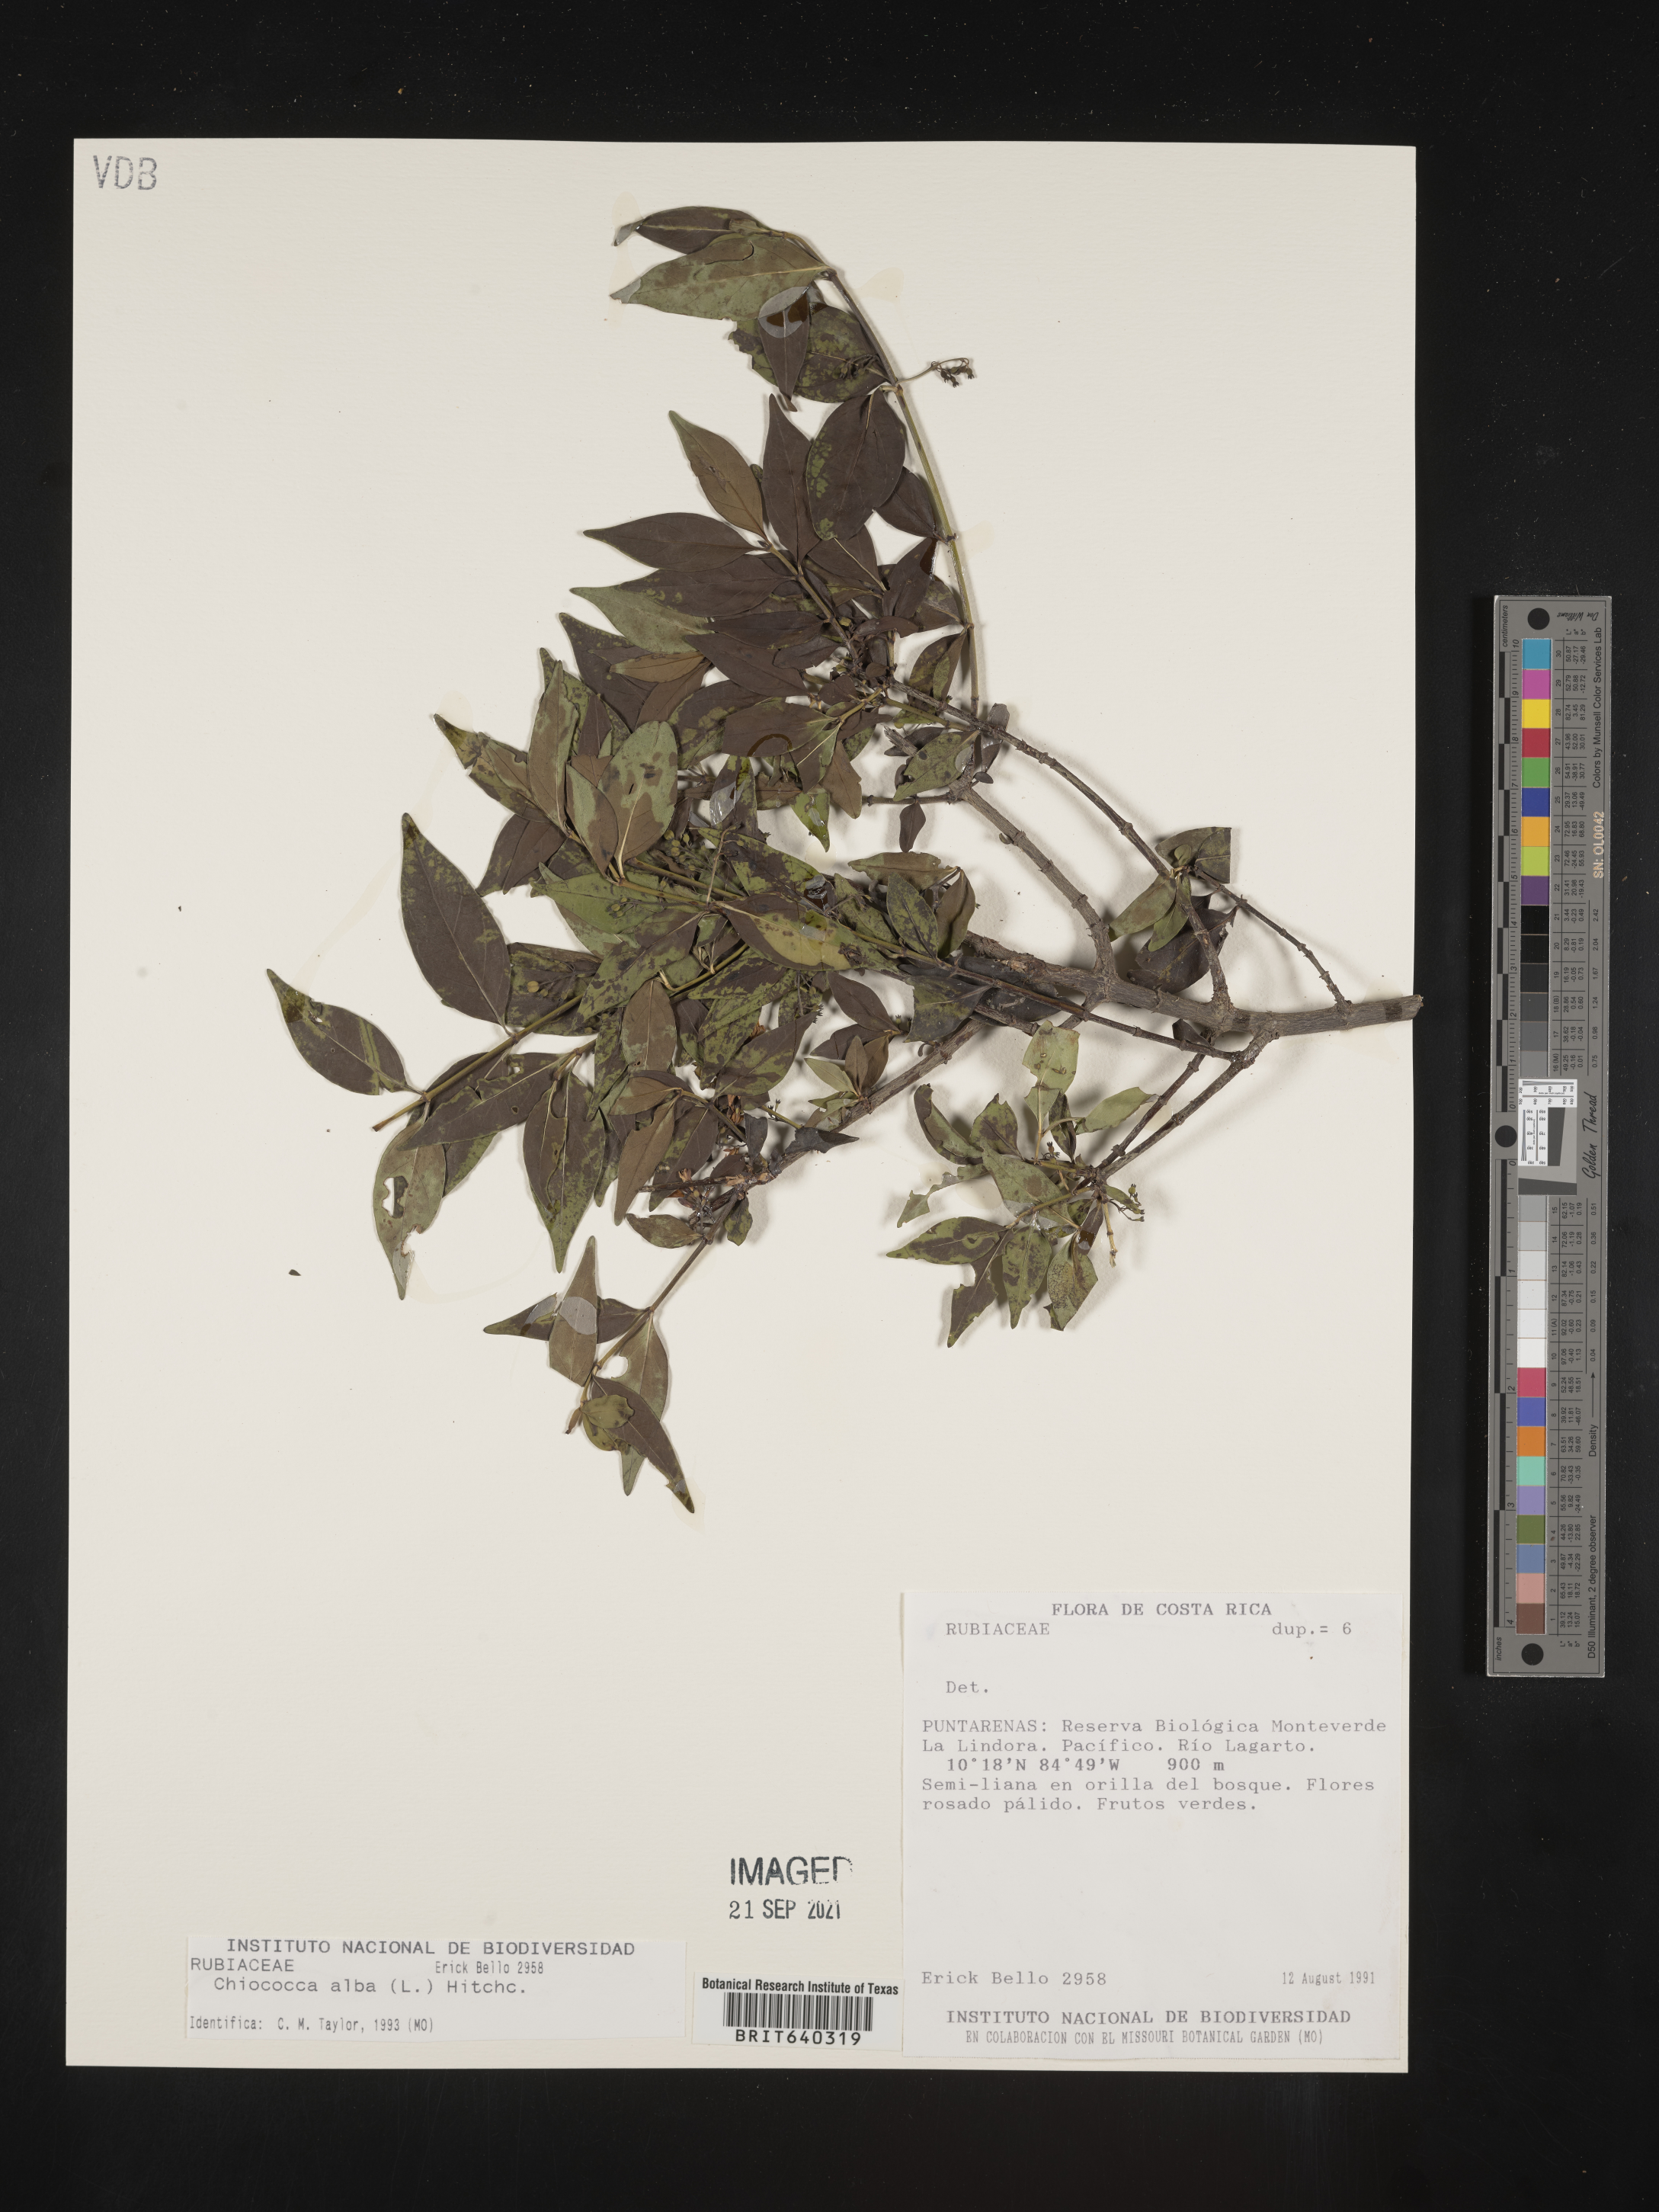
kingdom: Plantae
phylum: Tracheophyta
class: Magnoliopsida
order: Gentianales
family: Rubiaceae
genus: Chiococca
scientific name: Chiococca
